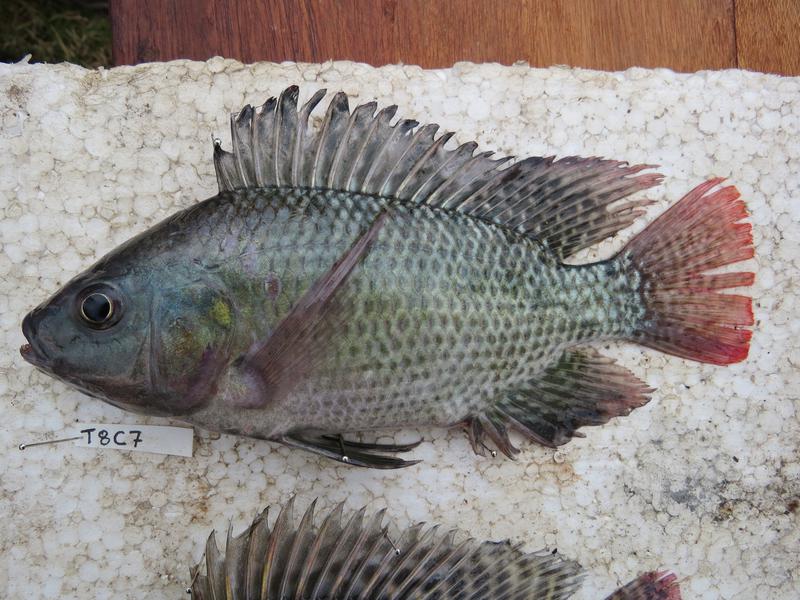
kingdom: Animalia
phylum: Chordata
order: Perciformes
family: Cichlidae
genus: Oreochromis
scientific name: Oreochromis niloticus
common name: Nile tilapia
